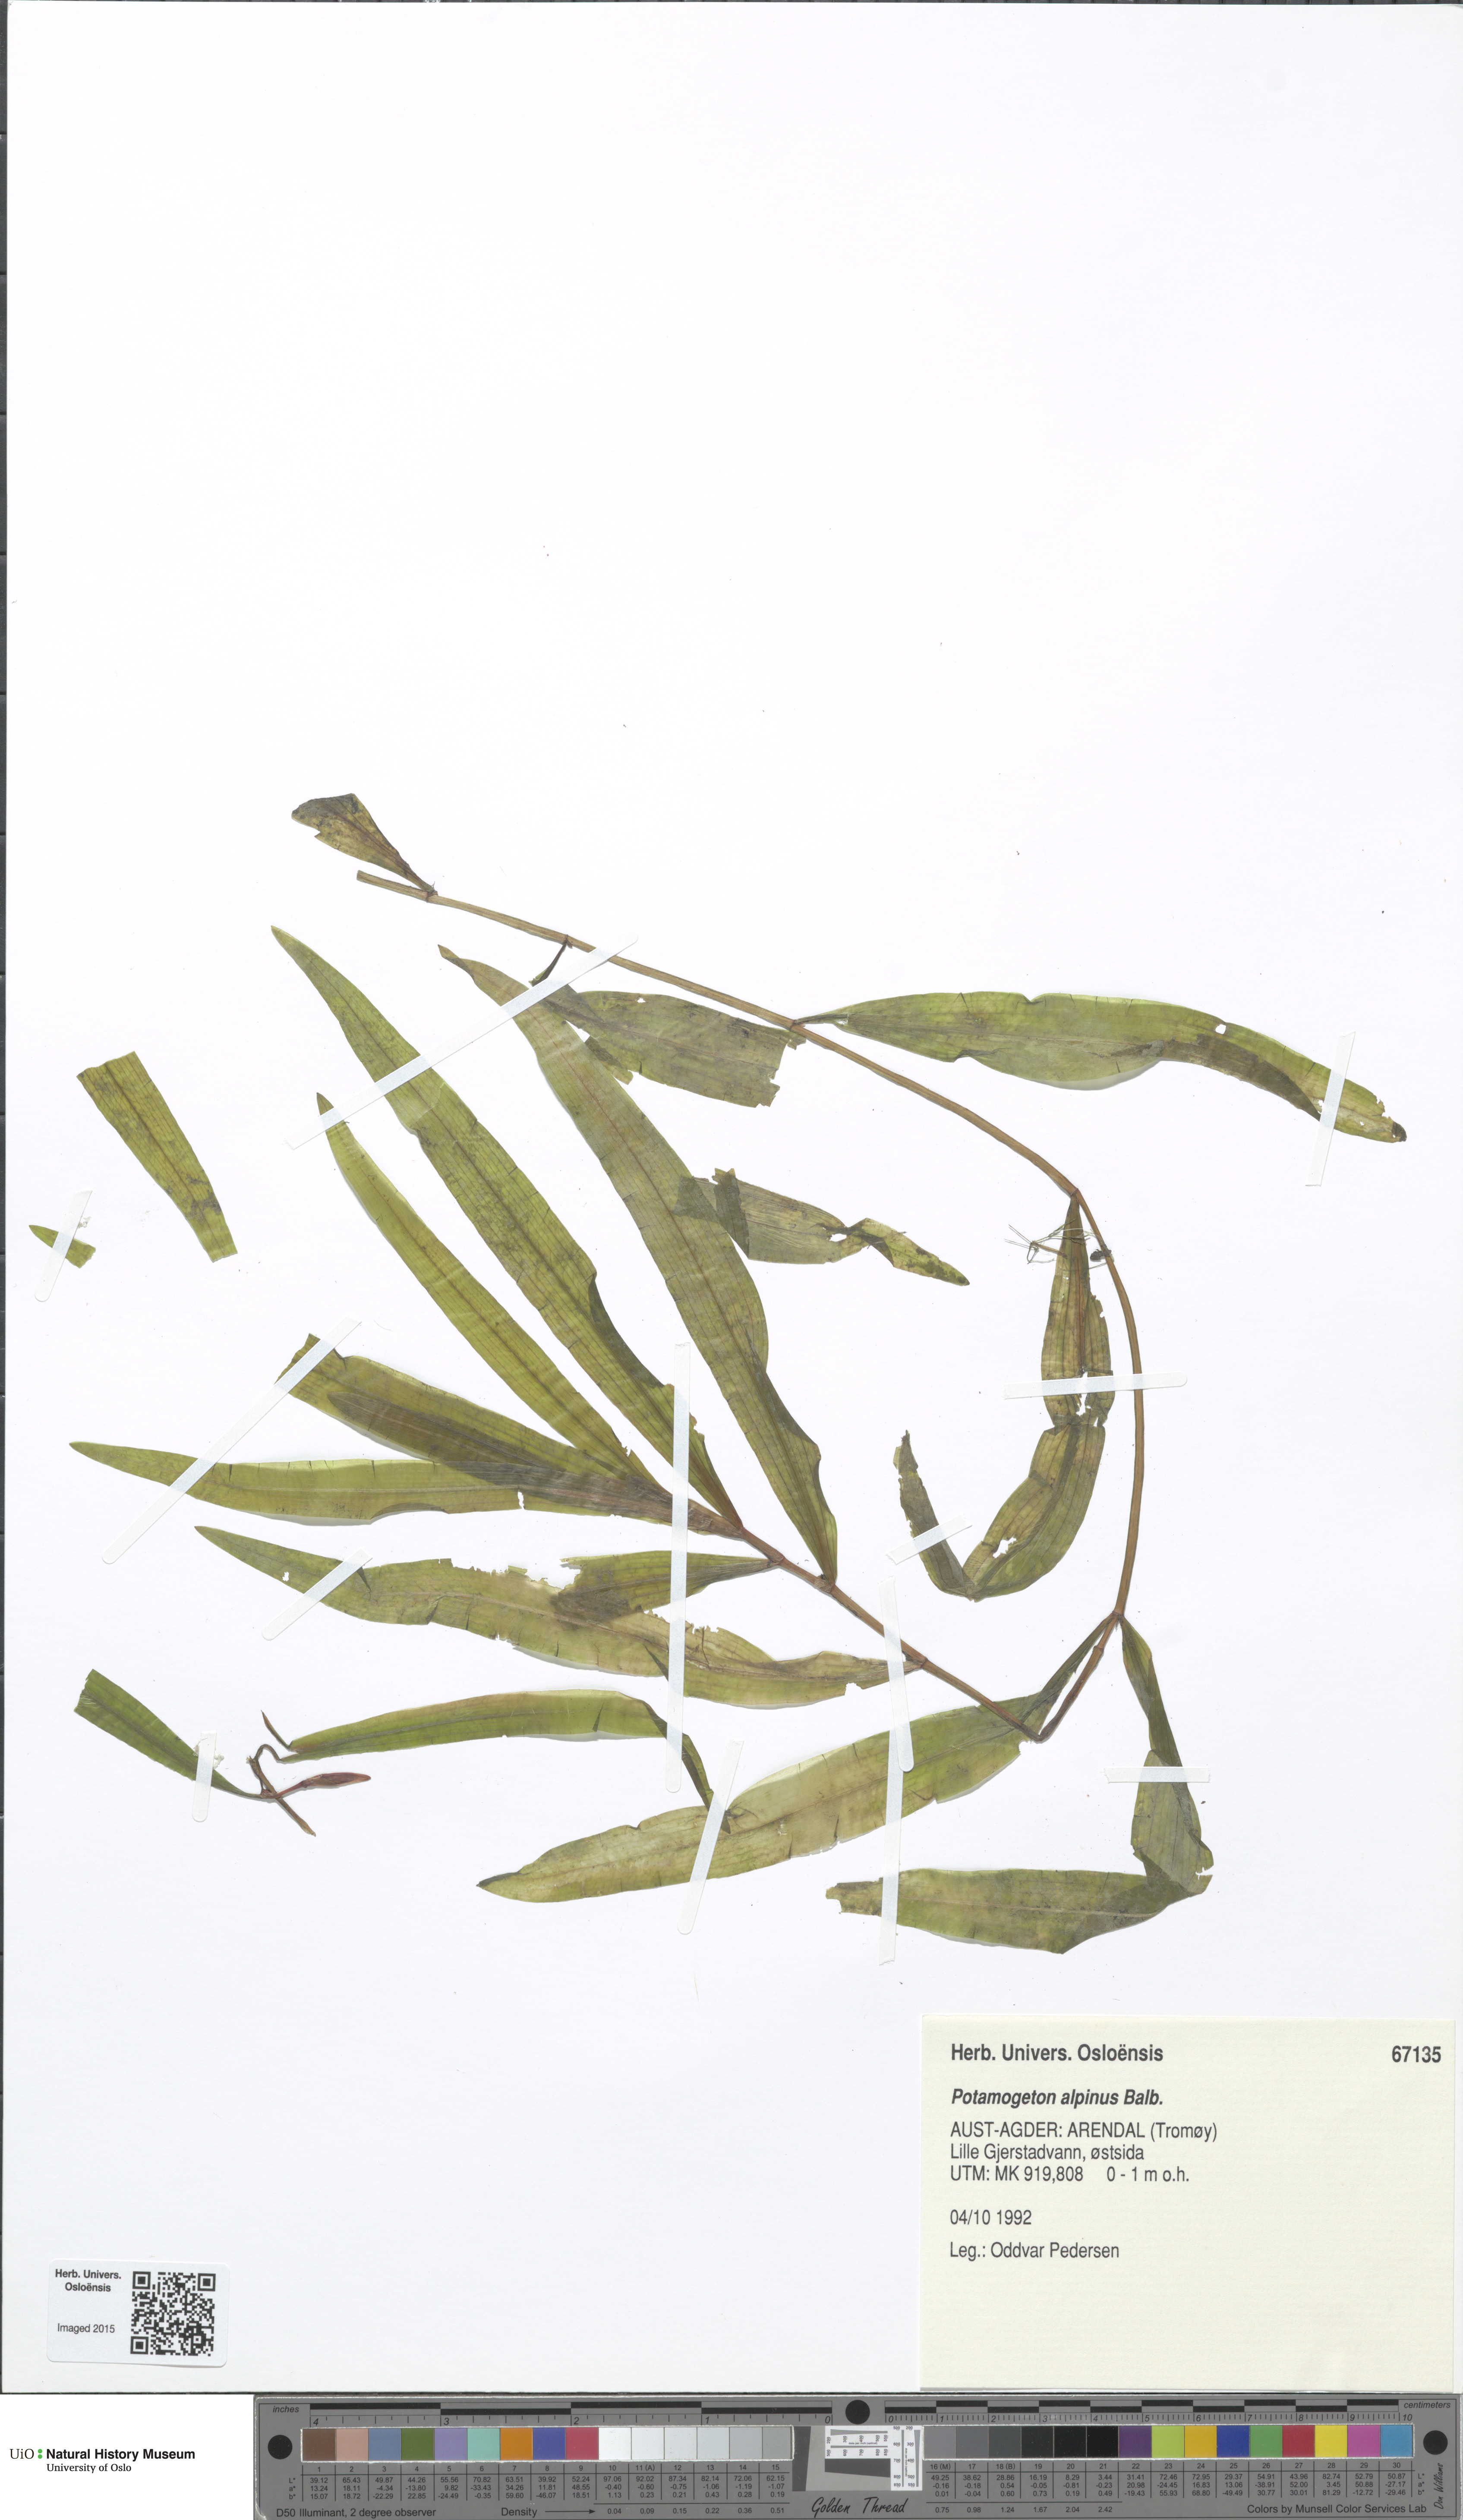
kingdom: Plantae
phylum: Tracheophyta
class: Liliopsida
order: Alismatales
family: Potamogetonaceae
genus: Potamogeton
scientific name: Potamogeton alpinus
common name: Red pondweed
